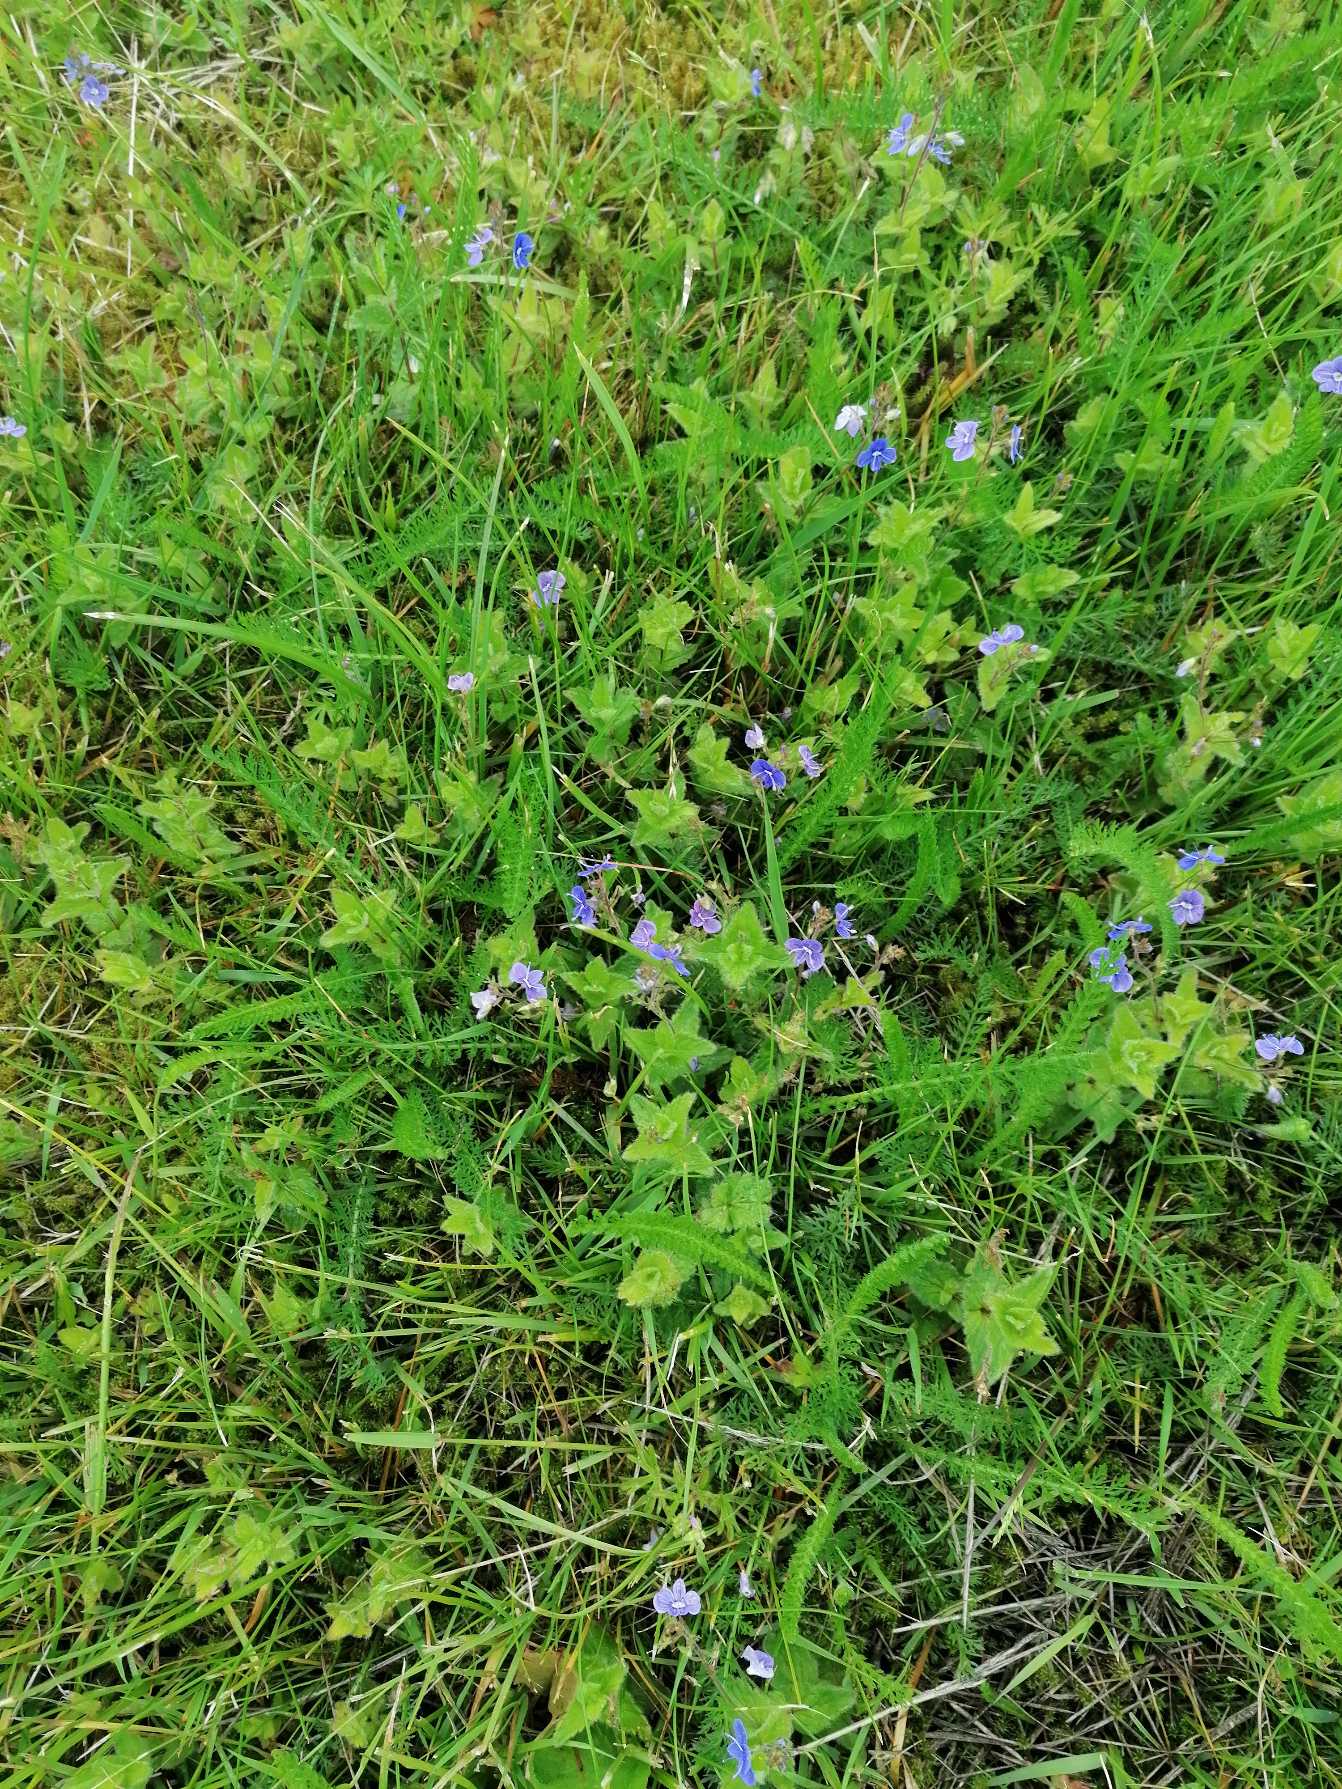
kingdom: Plantae
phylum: Tracheophyta
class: Magnoliopsida
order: Lamiales
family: Plantaginaceae
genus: Veronica
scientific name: Veronica chamaedrys
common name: Tveskægget ærenpris
